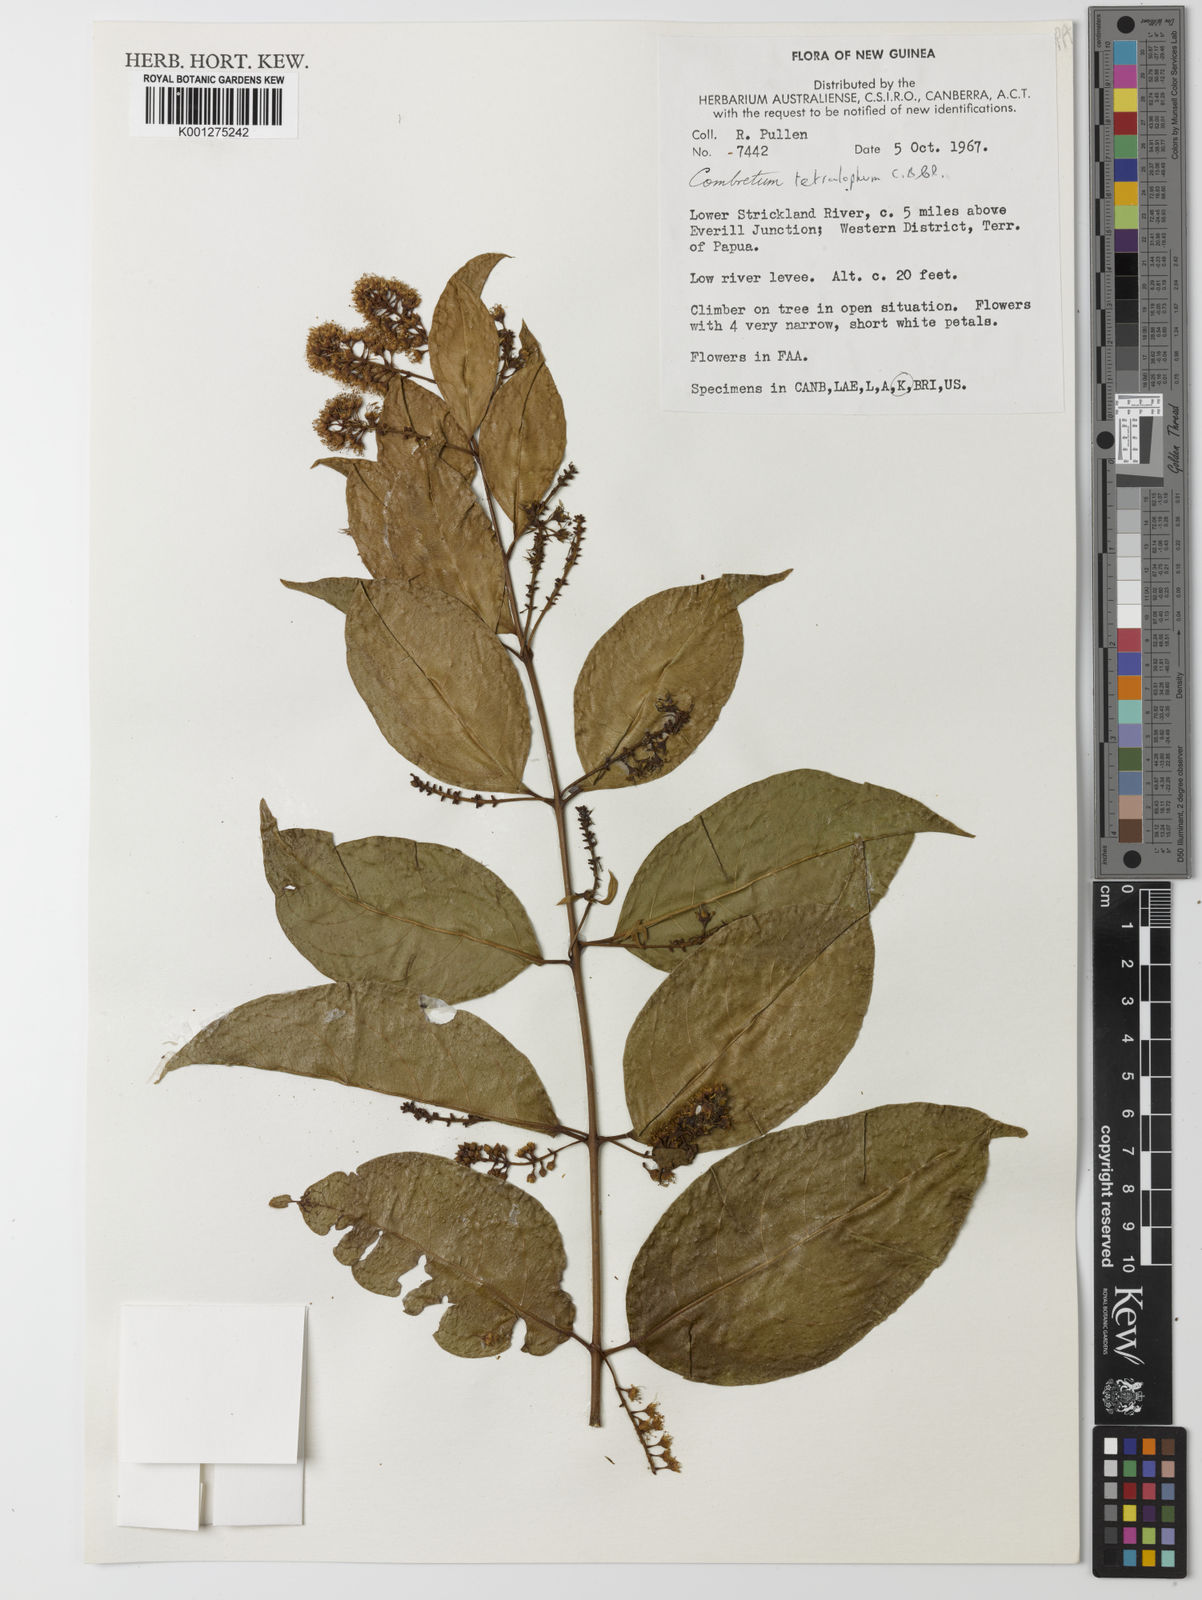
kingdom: Plantae
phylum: Tracheophyta
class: Magnoliopsida
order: Myrtales
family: Combretaceae
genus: Combretum
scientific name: Combretum tetralophum
